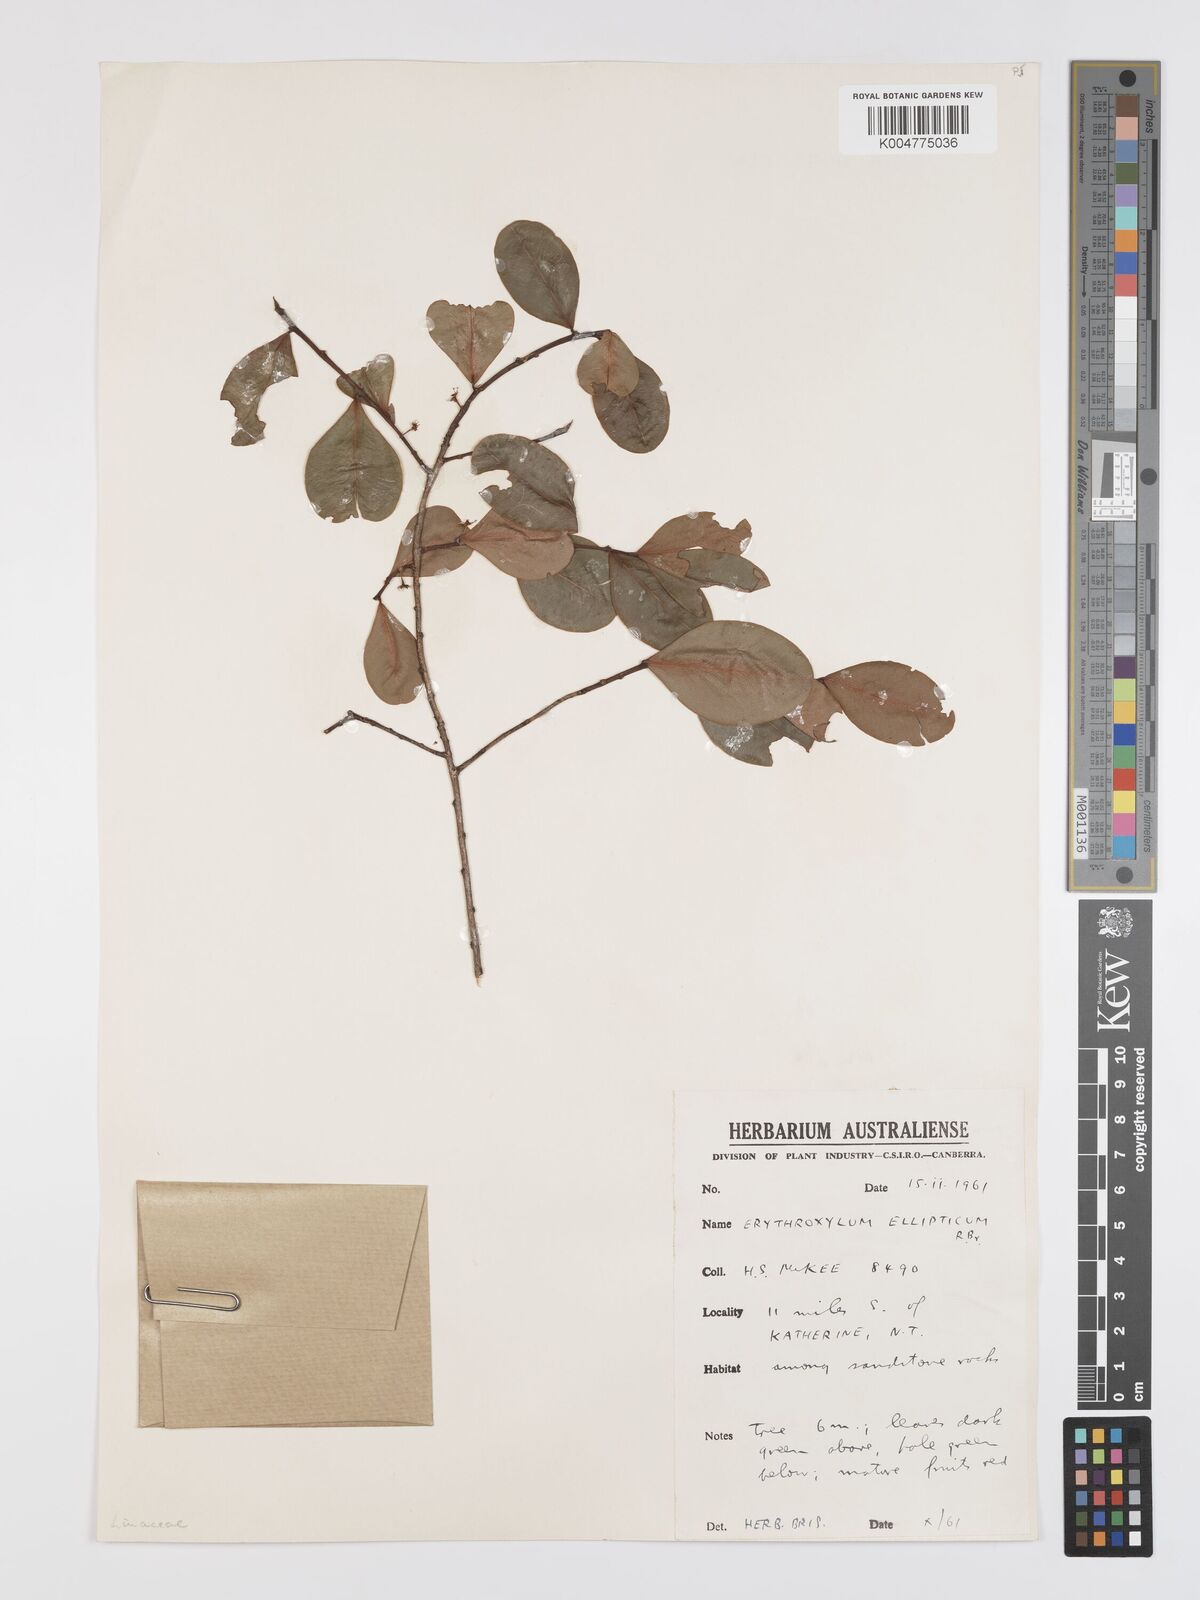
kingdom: Plantae
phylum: Tracheophyta
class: Magnoliopsida
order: Malpighiales
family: Erythroxylaceae
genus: Erythroxylum
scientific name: Erythroxylum
